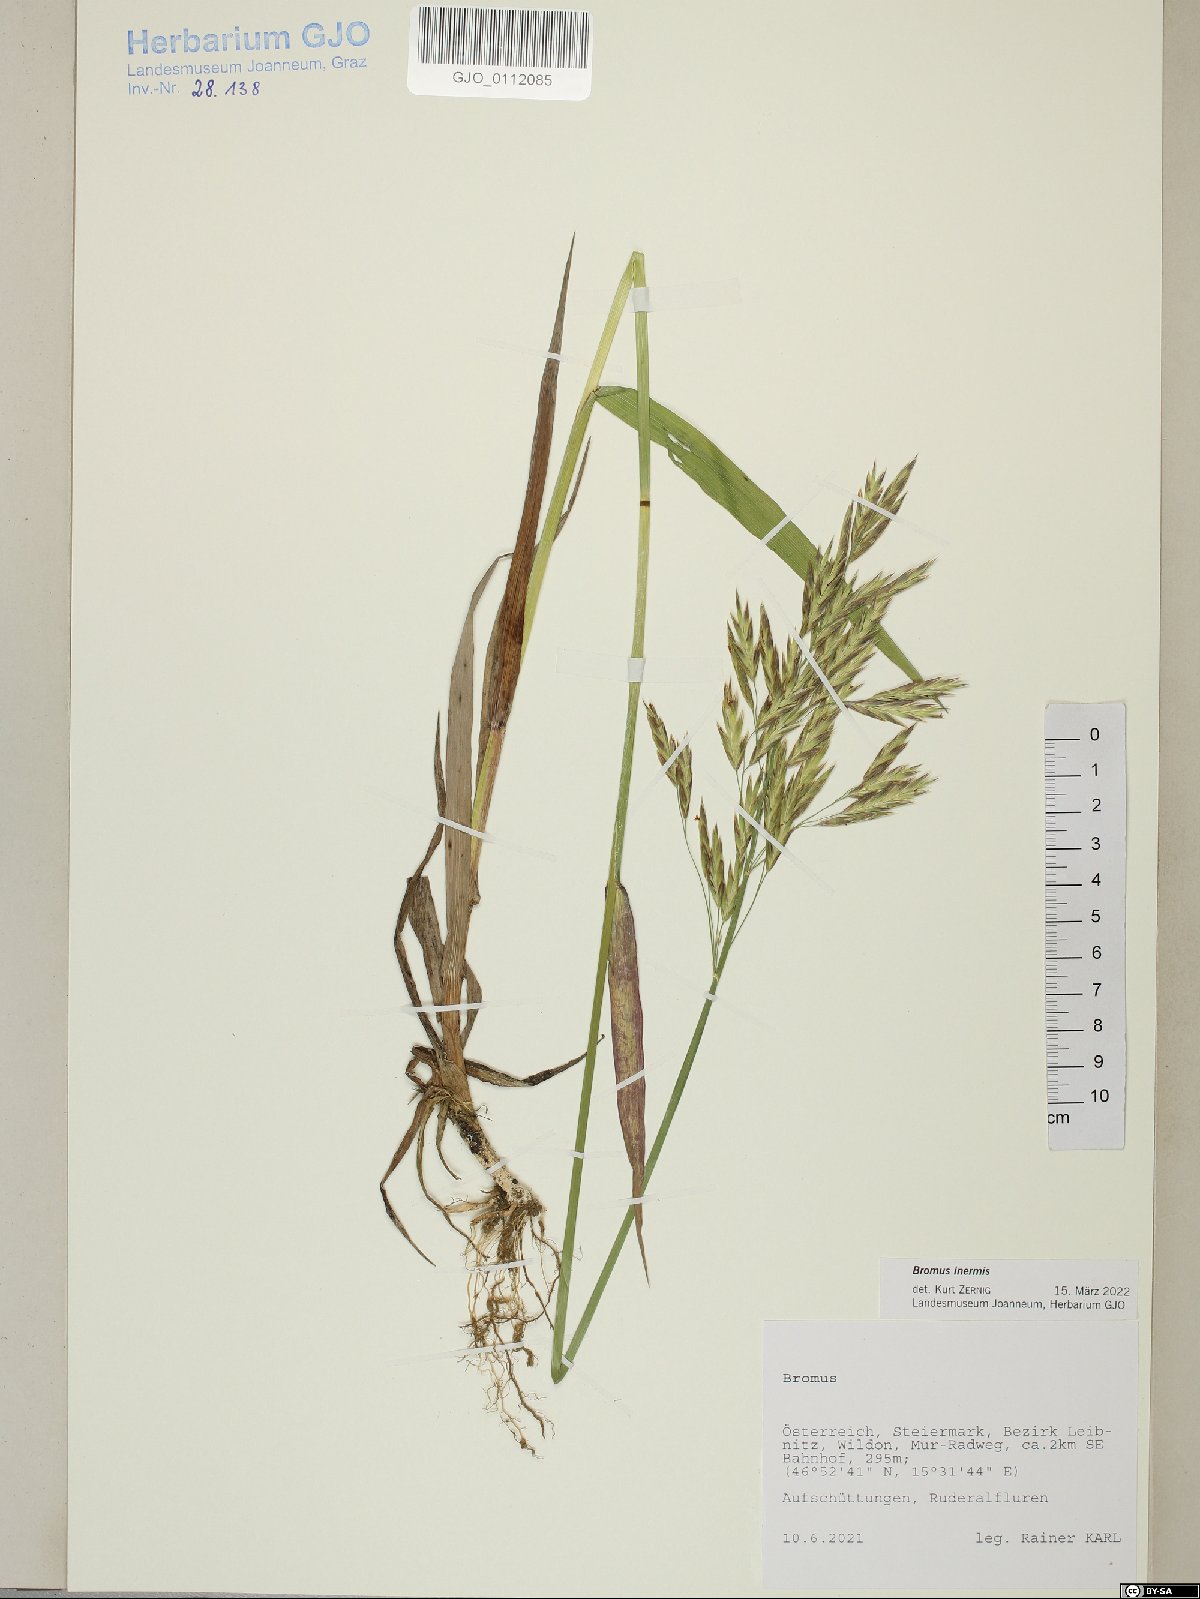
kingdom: Plantae
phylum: Tracheophyta
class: Liliopsida
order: Poales
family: Poaceae
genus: Bromus
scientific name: Bromus inermis
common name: Smooth brome
